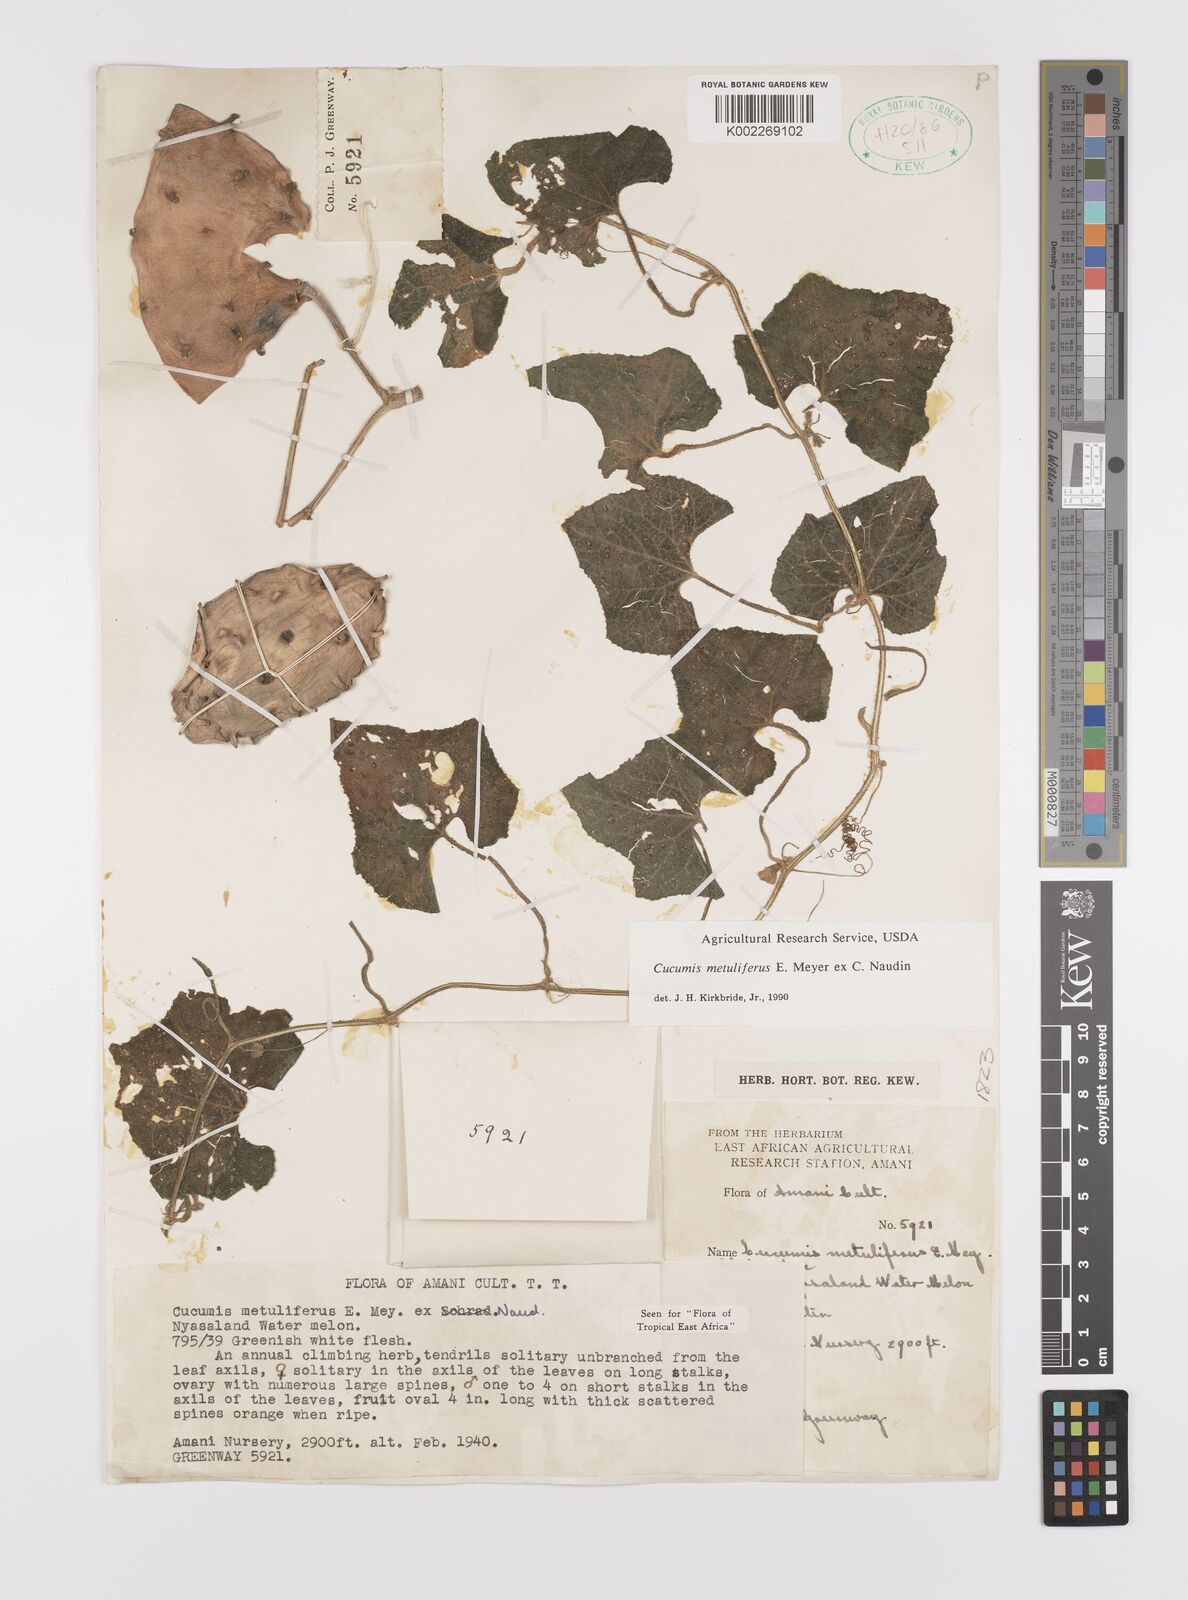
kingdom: Plantae
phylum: Tracheophyta
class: Magnoliopsida
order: Cucurbitales
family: Cucurbitaceae
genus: Cucumis
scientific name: Cucumis metuliferus
